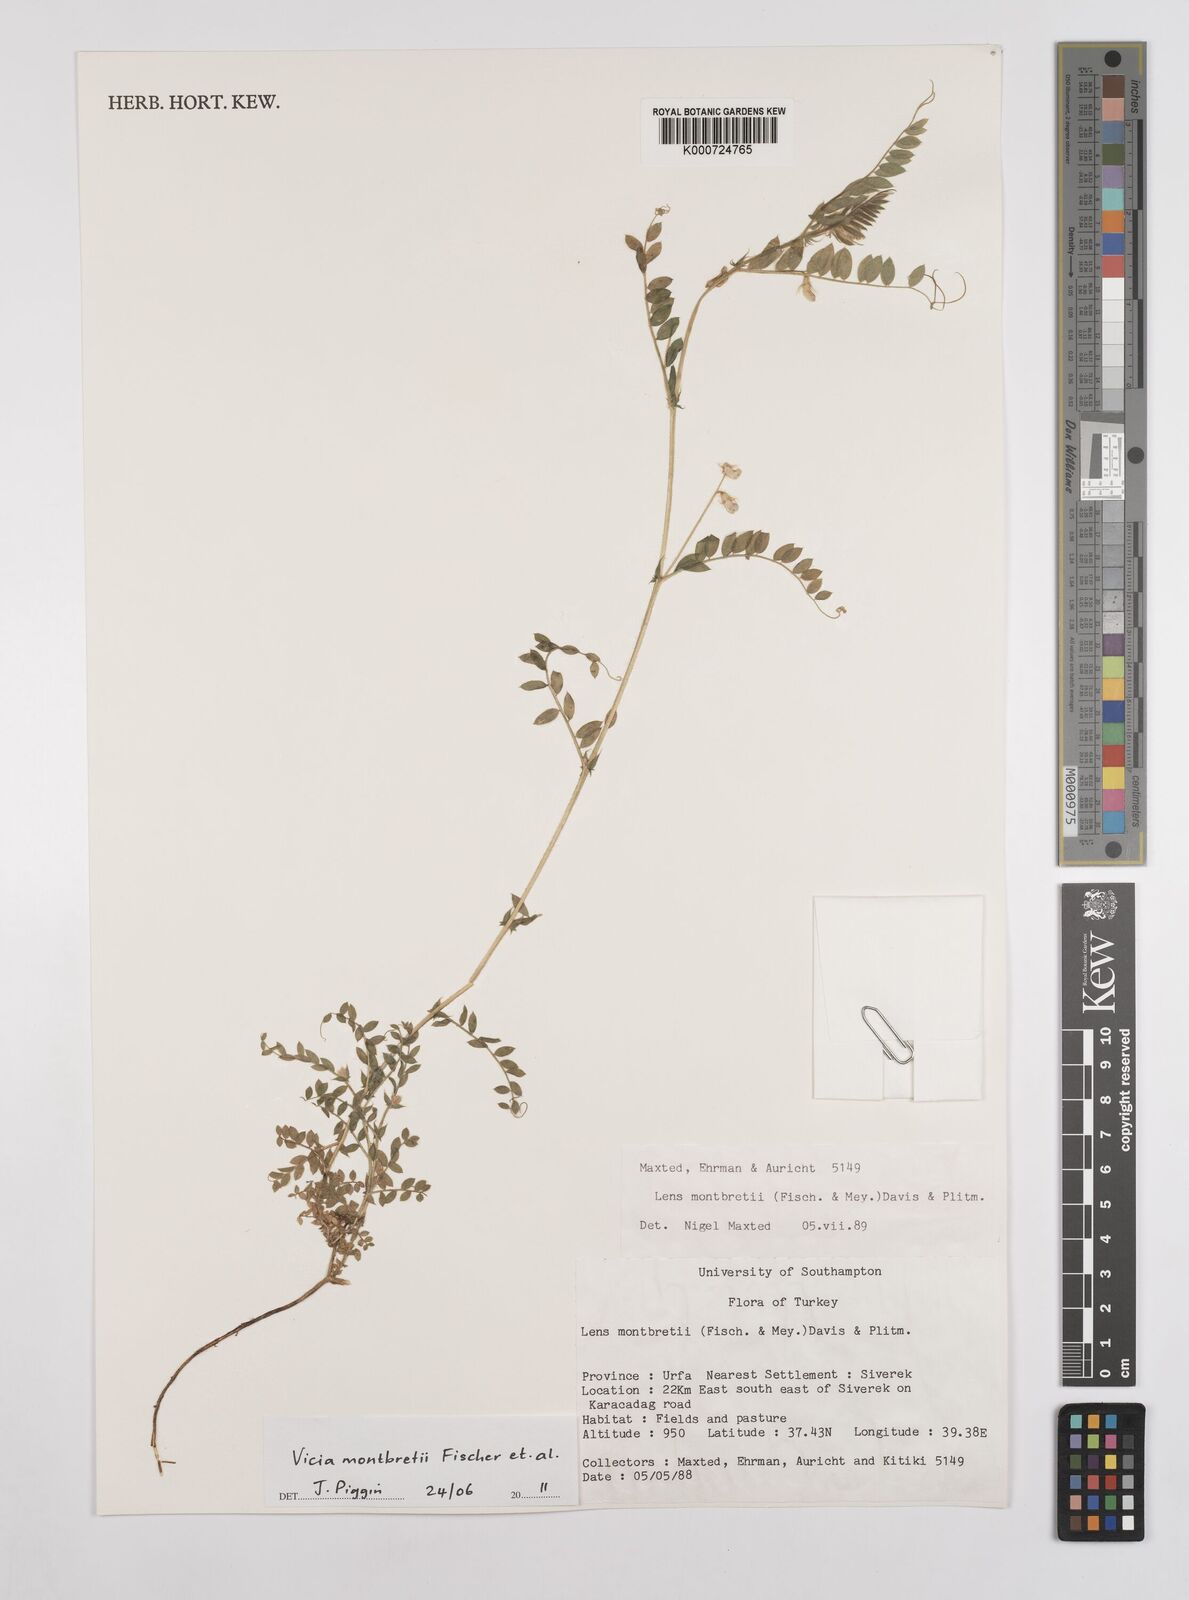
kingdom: Plantae
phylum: Tracheophyta
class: Magnoliopsida
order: Fabales
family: Fabaceae
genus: Vicia
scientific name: Vicia montbretii
